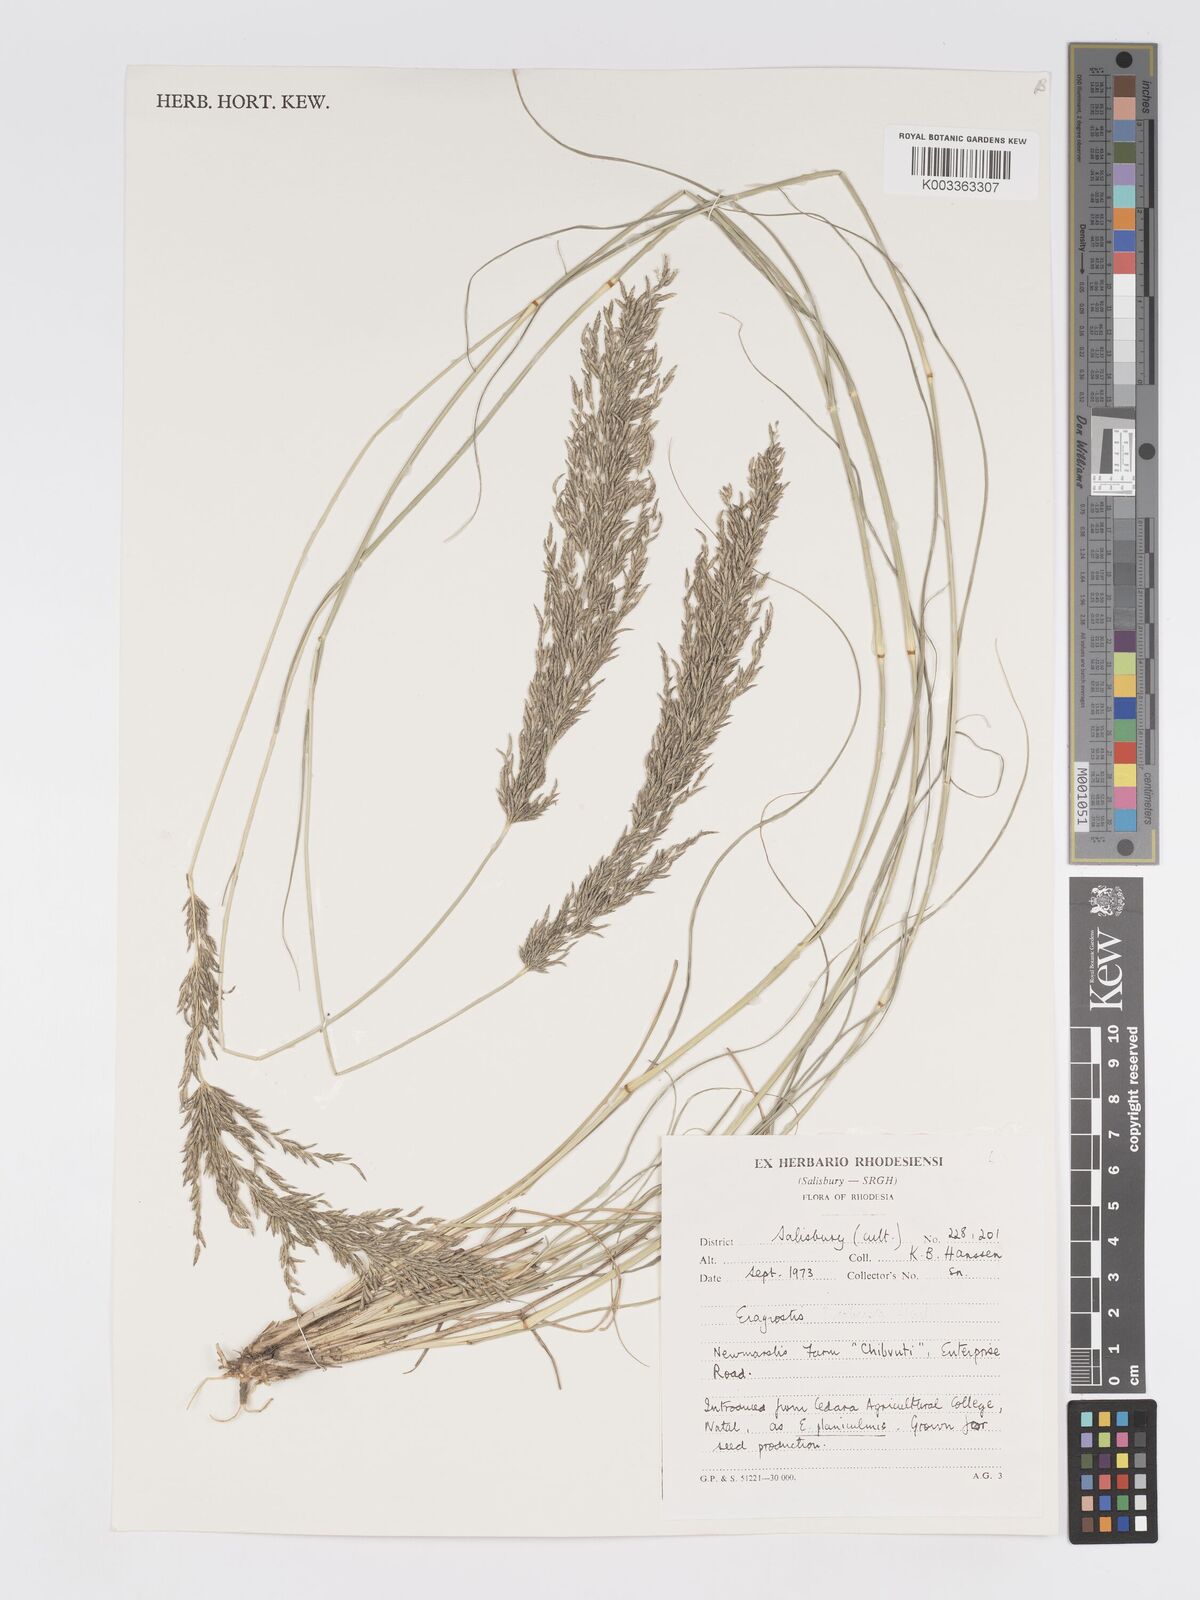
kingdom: Plantae
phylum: Tracheophyta
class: Liliopsida
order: Poales
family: Poaceae
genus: Eragrostis
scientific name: Eragrostis curvula
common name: African love-grass
